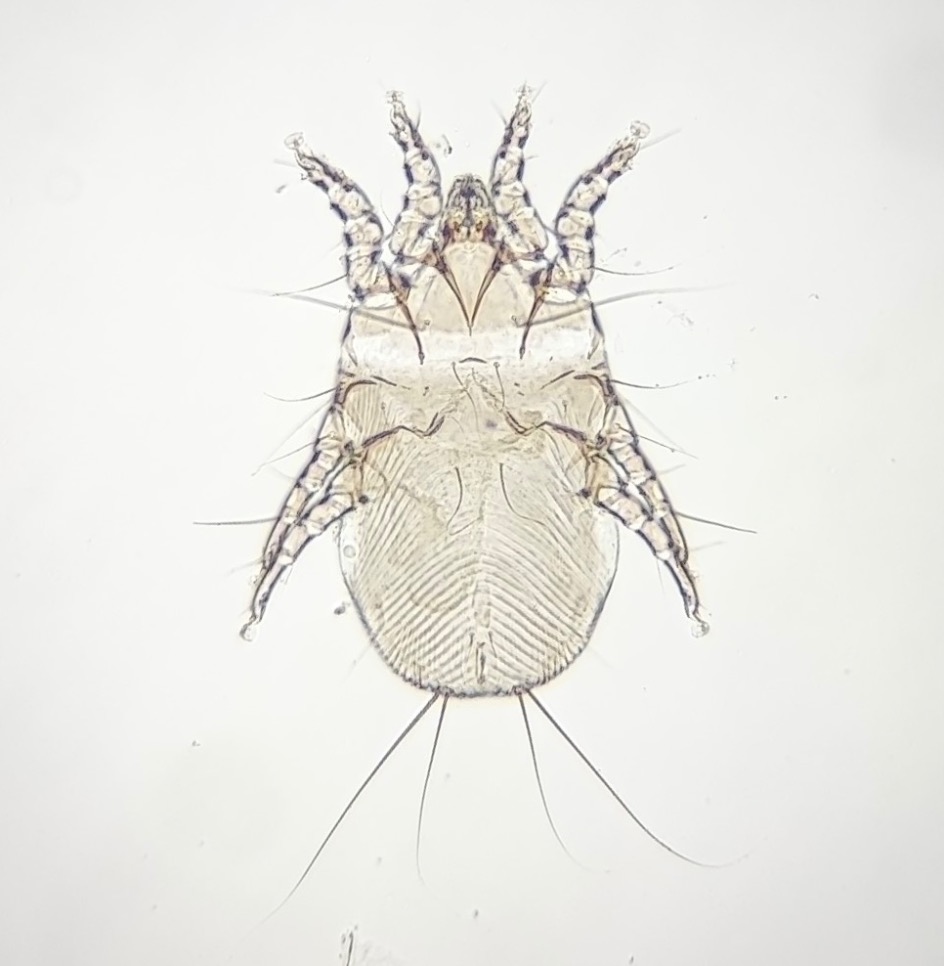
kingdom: Animalia
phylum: Arthropoda
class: Arachnida
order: Sarcoptiformes
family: Analgidae
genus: Metanalges
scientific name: Metanalges crexi
